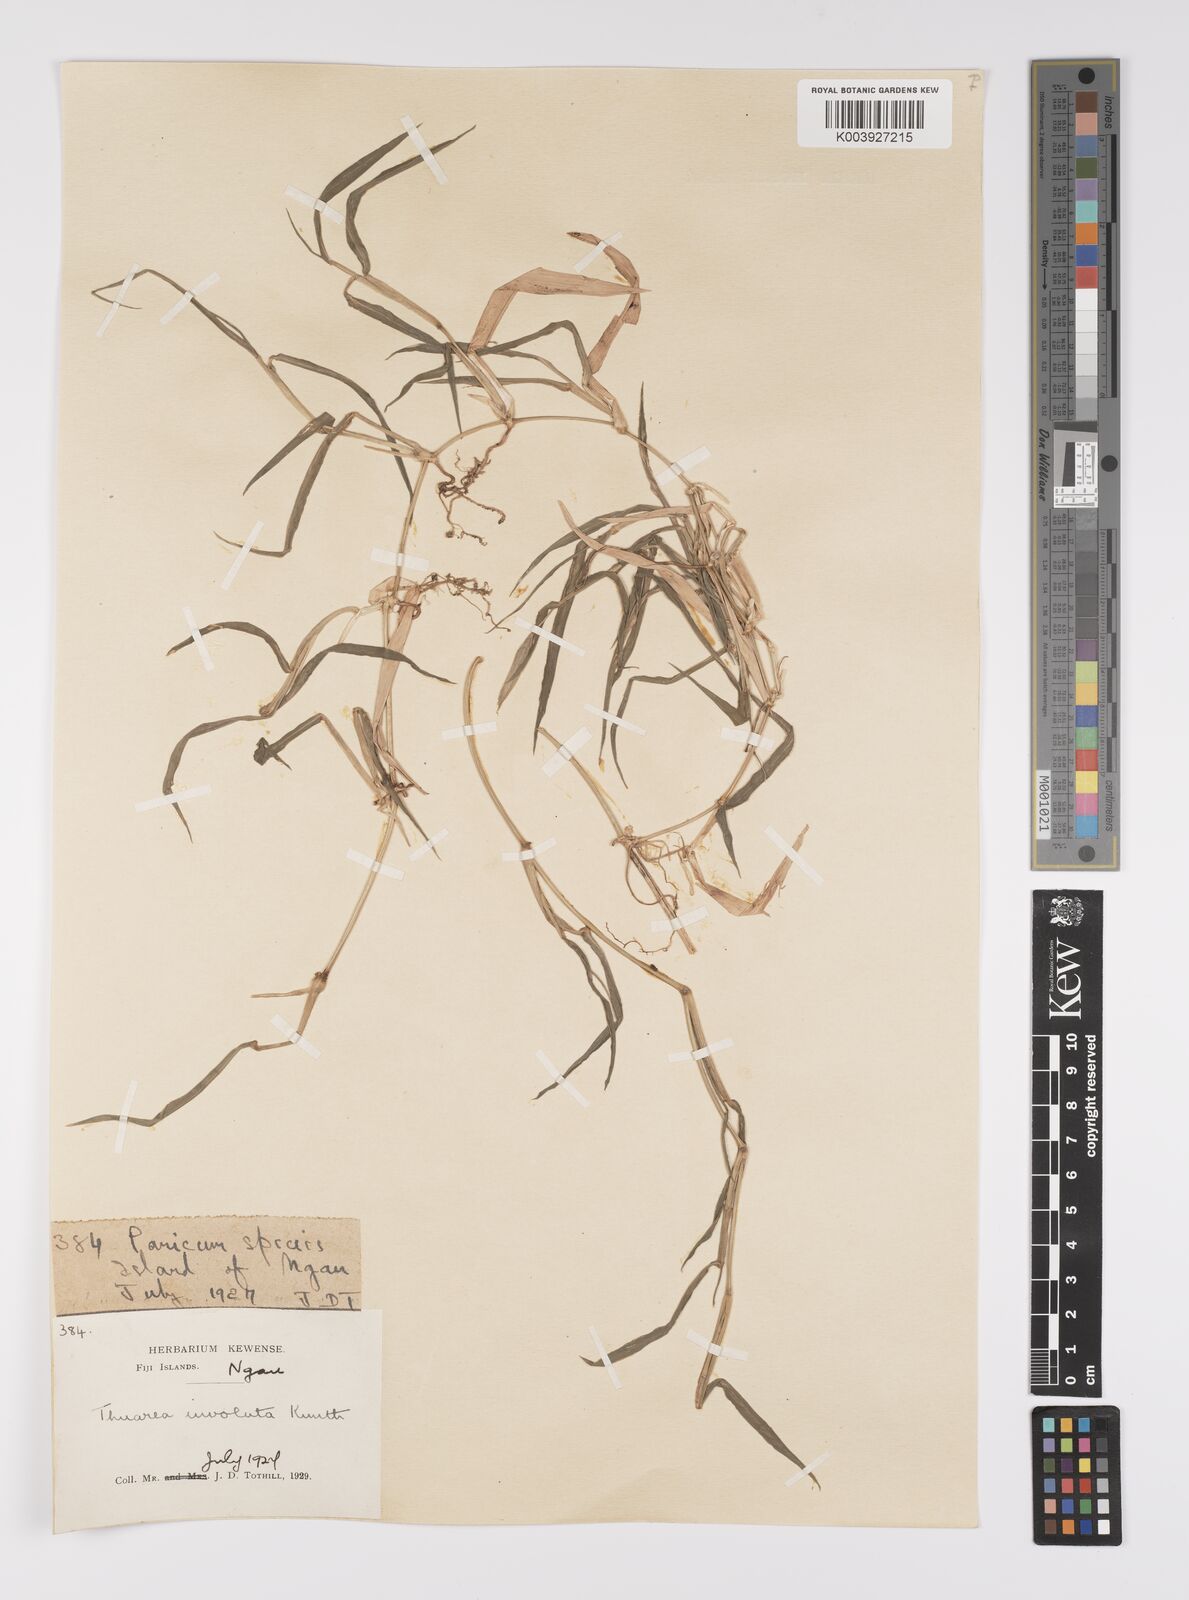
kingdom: Plantae
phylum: Tracheophyta
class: Liliopsida
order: Poales
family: Poaceae
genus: Thuarea
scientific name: Thuarea involuta
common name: Tropical beach grass
